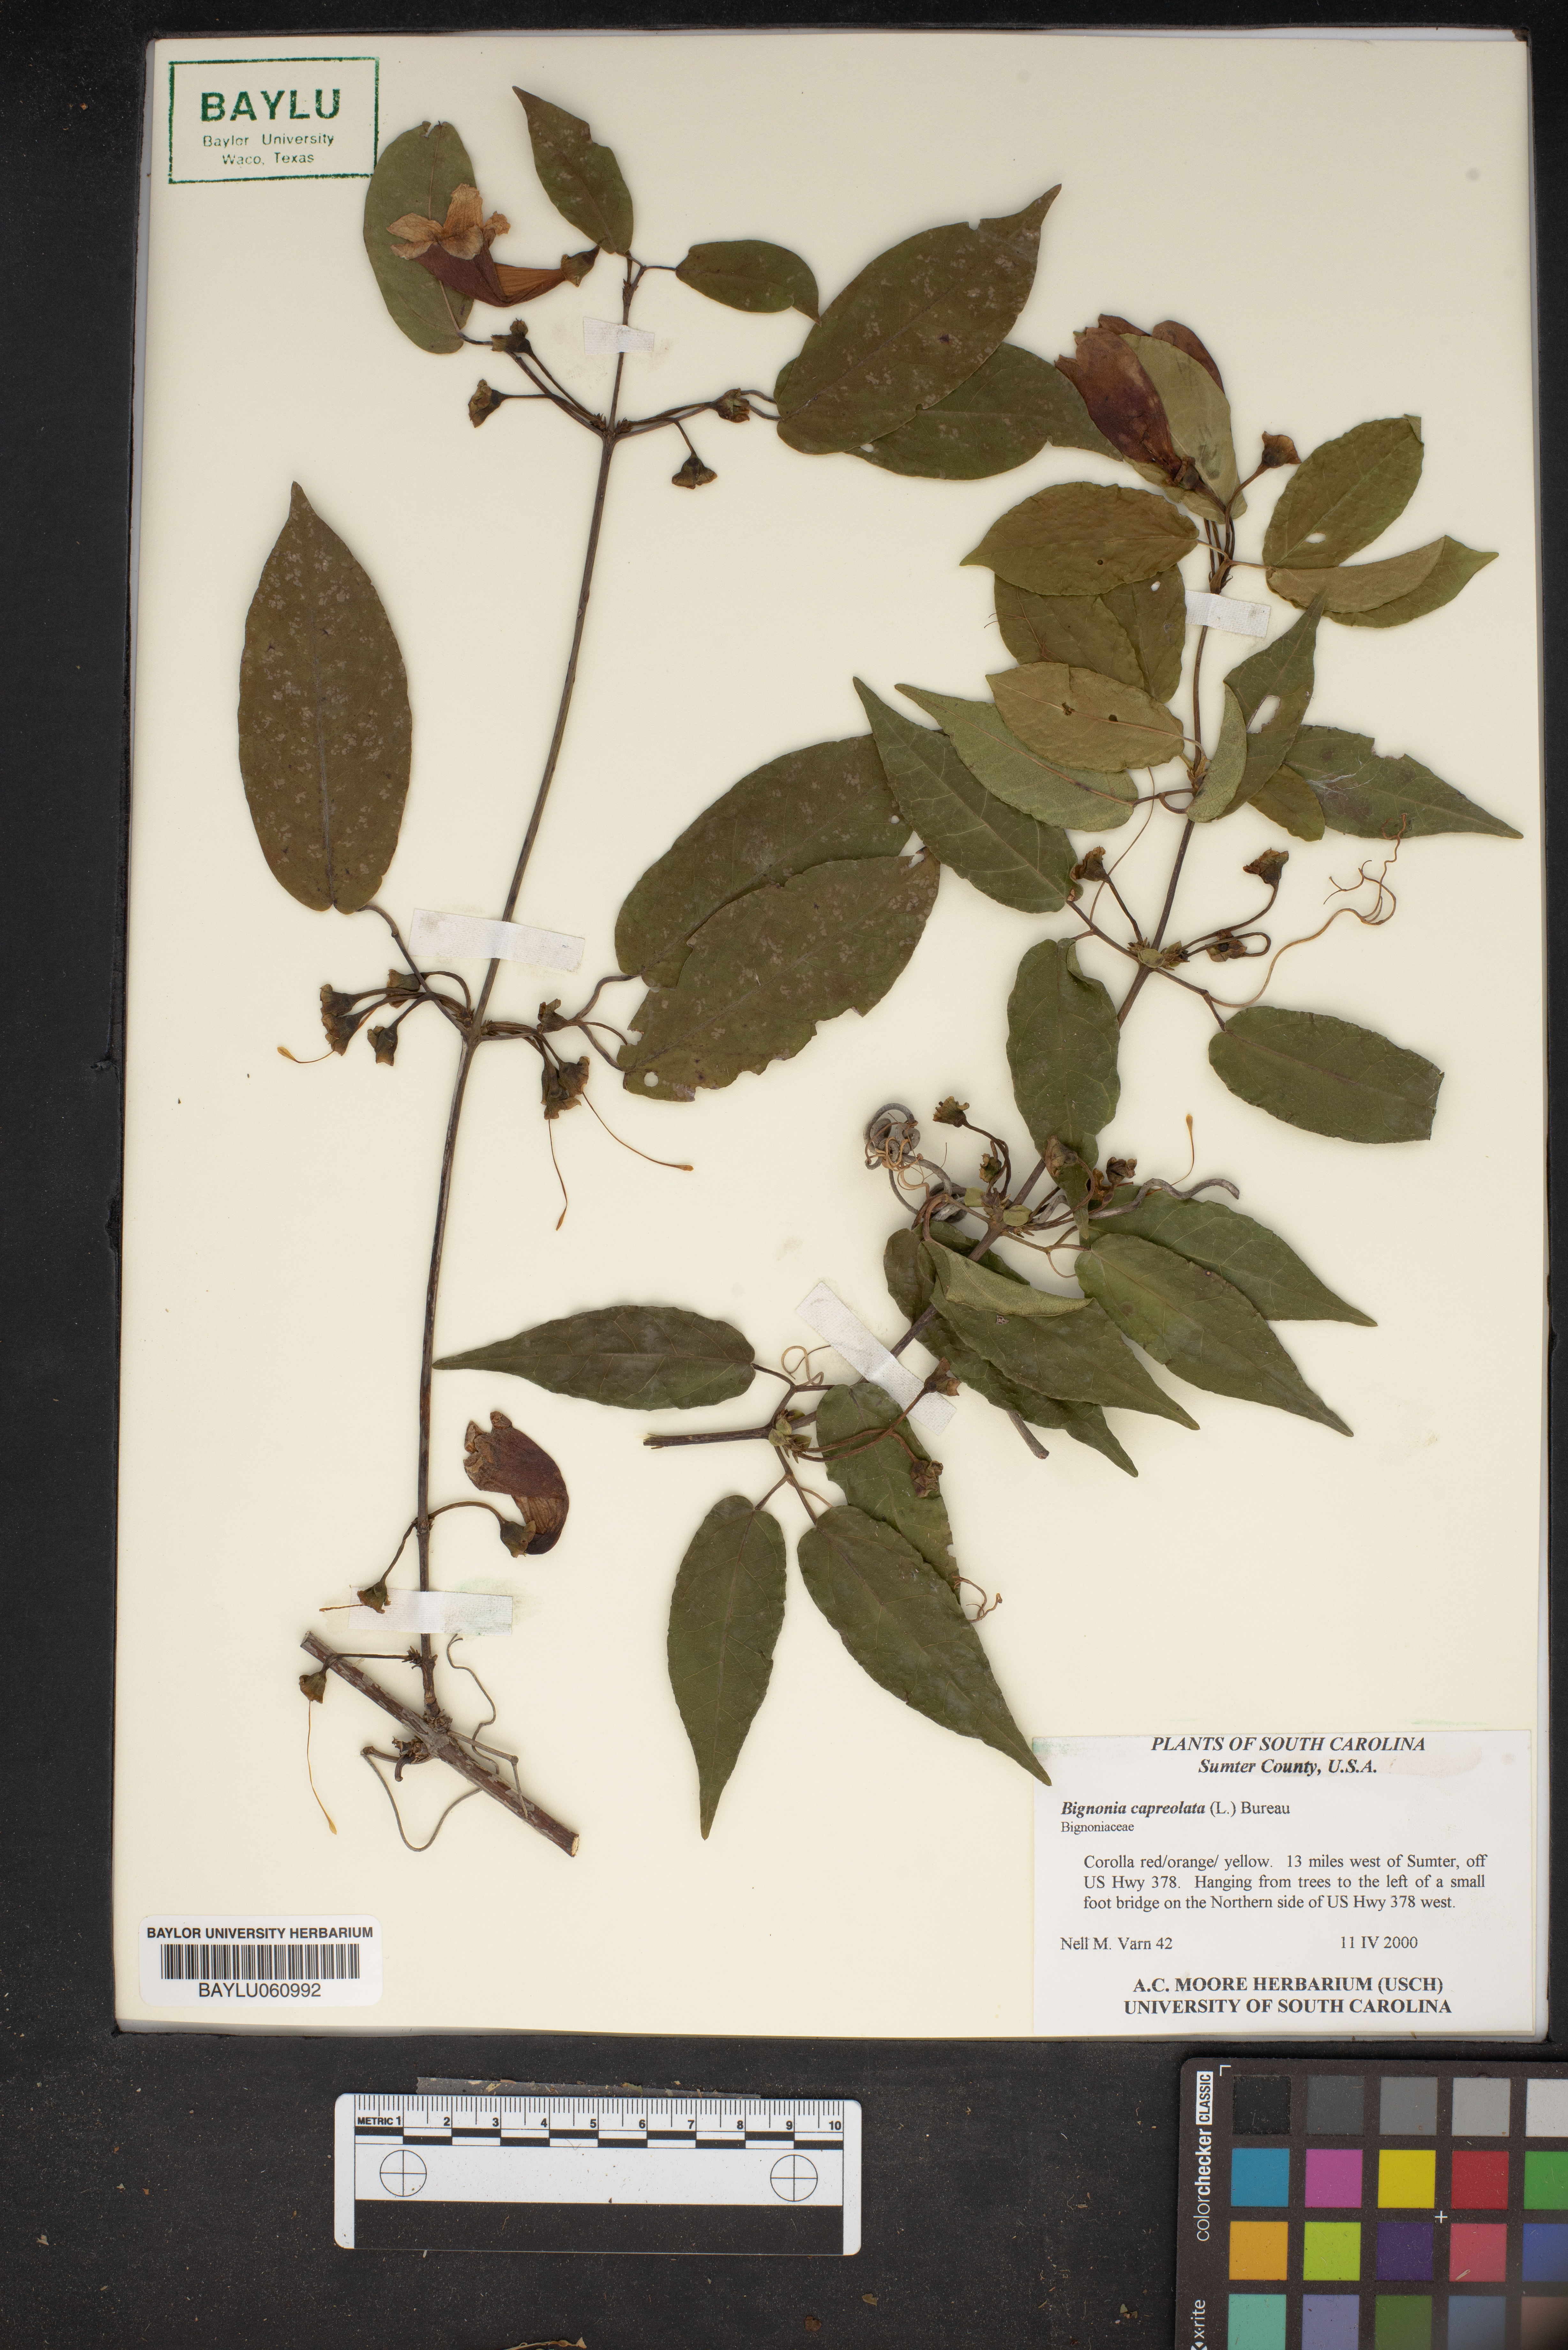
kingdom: Plantae
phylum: Tracheophyta
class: Magnoliopsida
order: Lamiales
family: Bignoniaceae
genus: Bignonia
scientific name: Bignonia capreolata
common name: Crossvine
